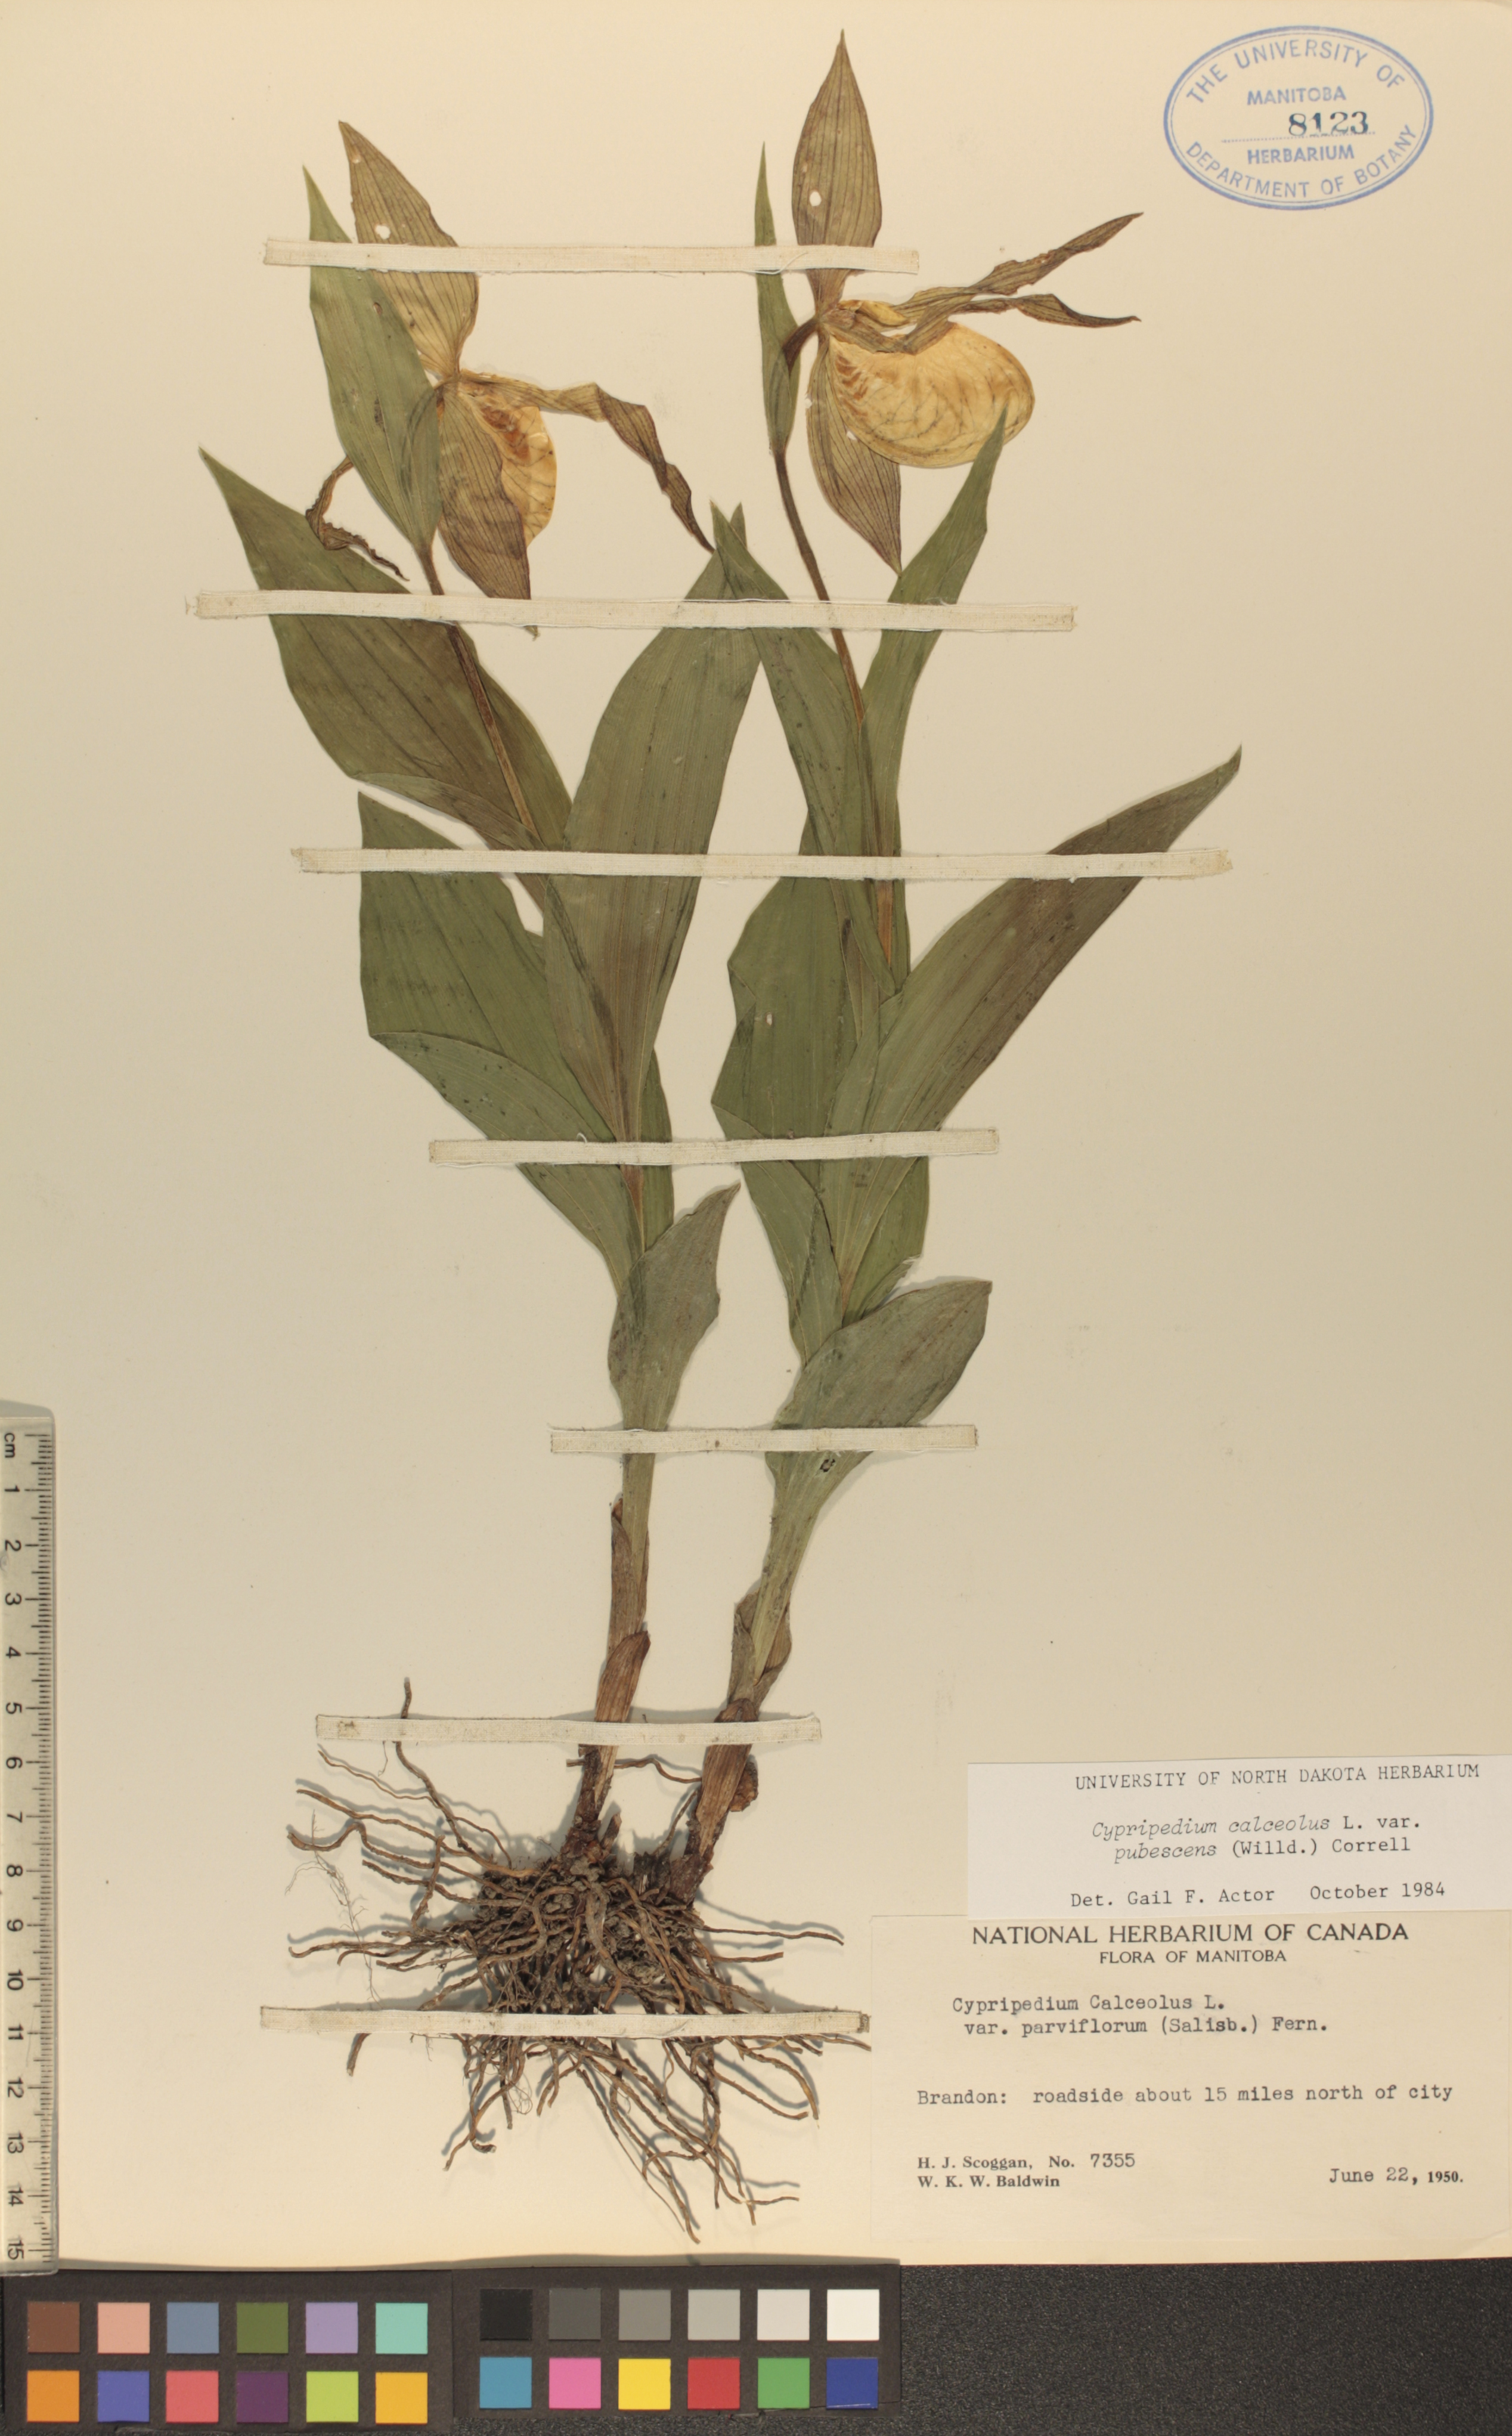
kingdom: Plantae
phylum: Tracheophyta
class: Liliopsida
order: Asparagales
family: Orchidaceae
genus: Cypripedium
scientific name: Cypripedium parviflorum
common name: American yellow lady's-slipper
